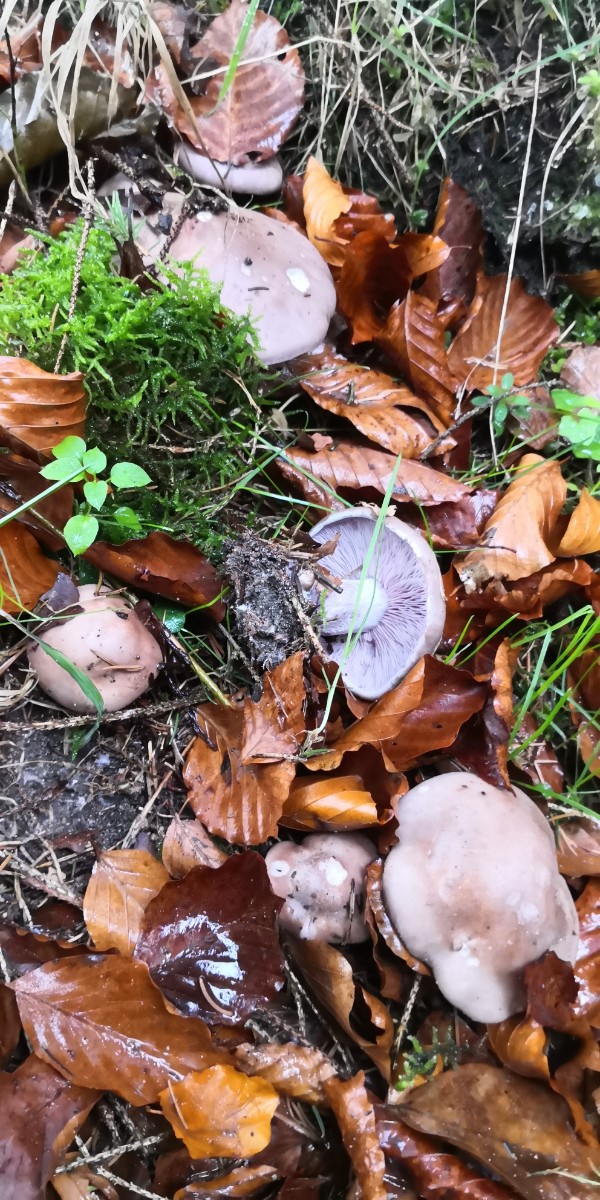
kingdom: Fungi
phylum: Basidiomycota
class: Agaricomycetes
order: Agaricales
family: Tricholomataceae
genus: Lepista
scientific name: Lepista nuda
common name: violet hekseringshat
